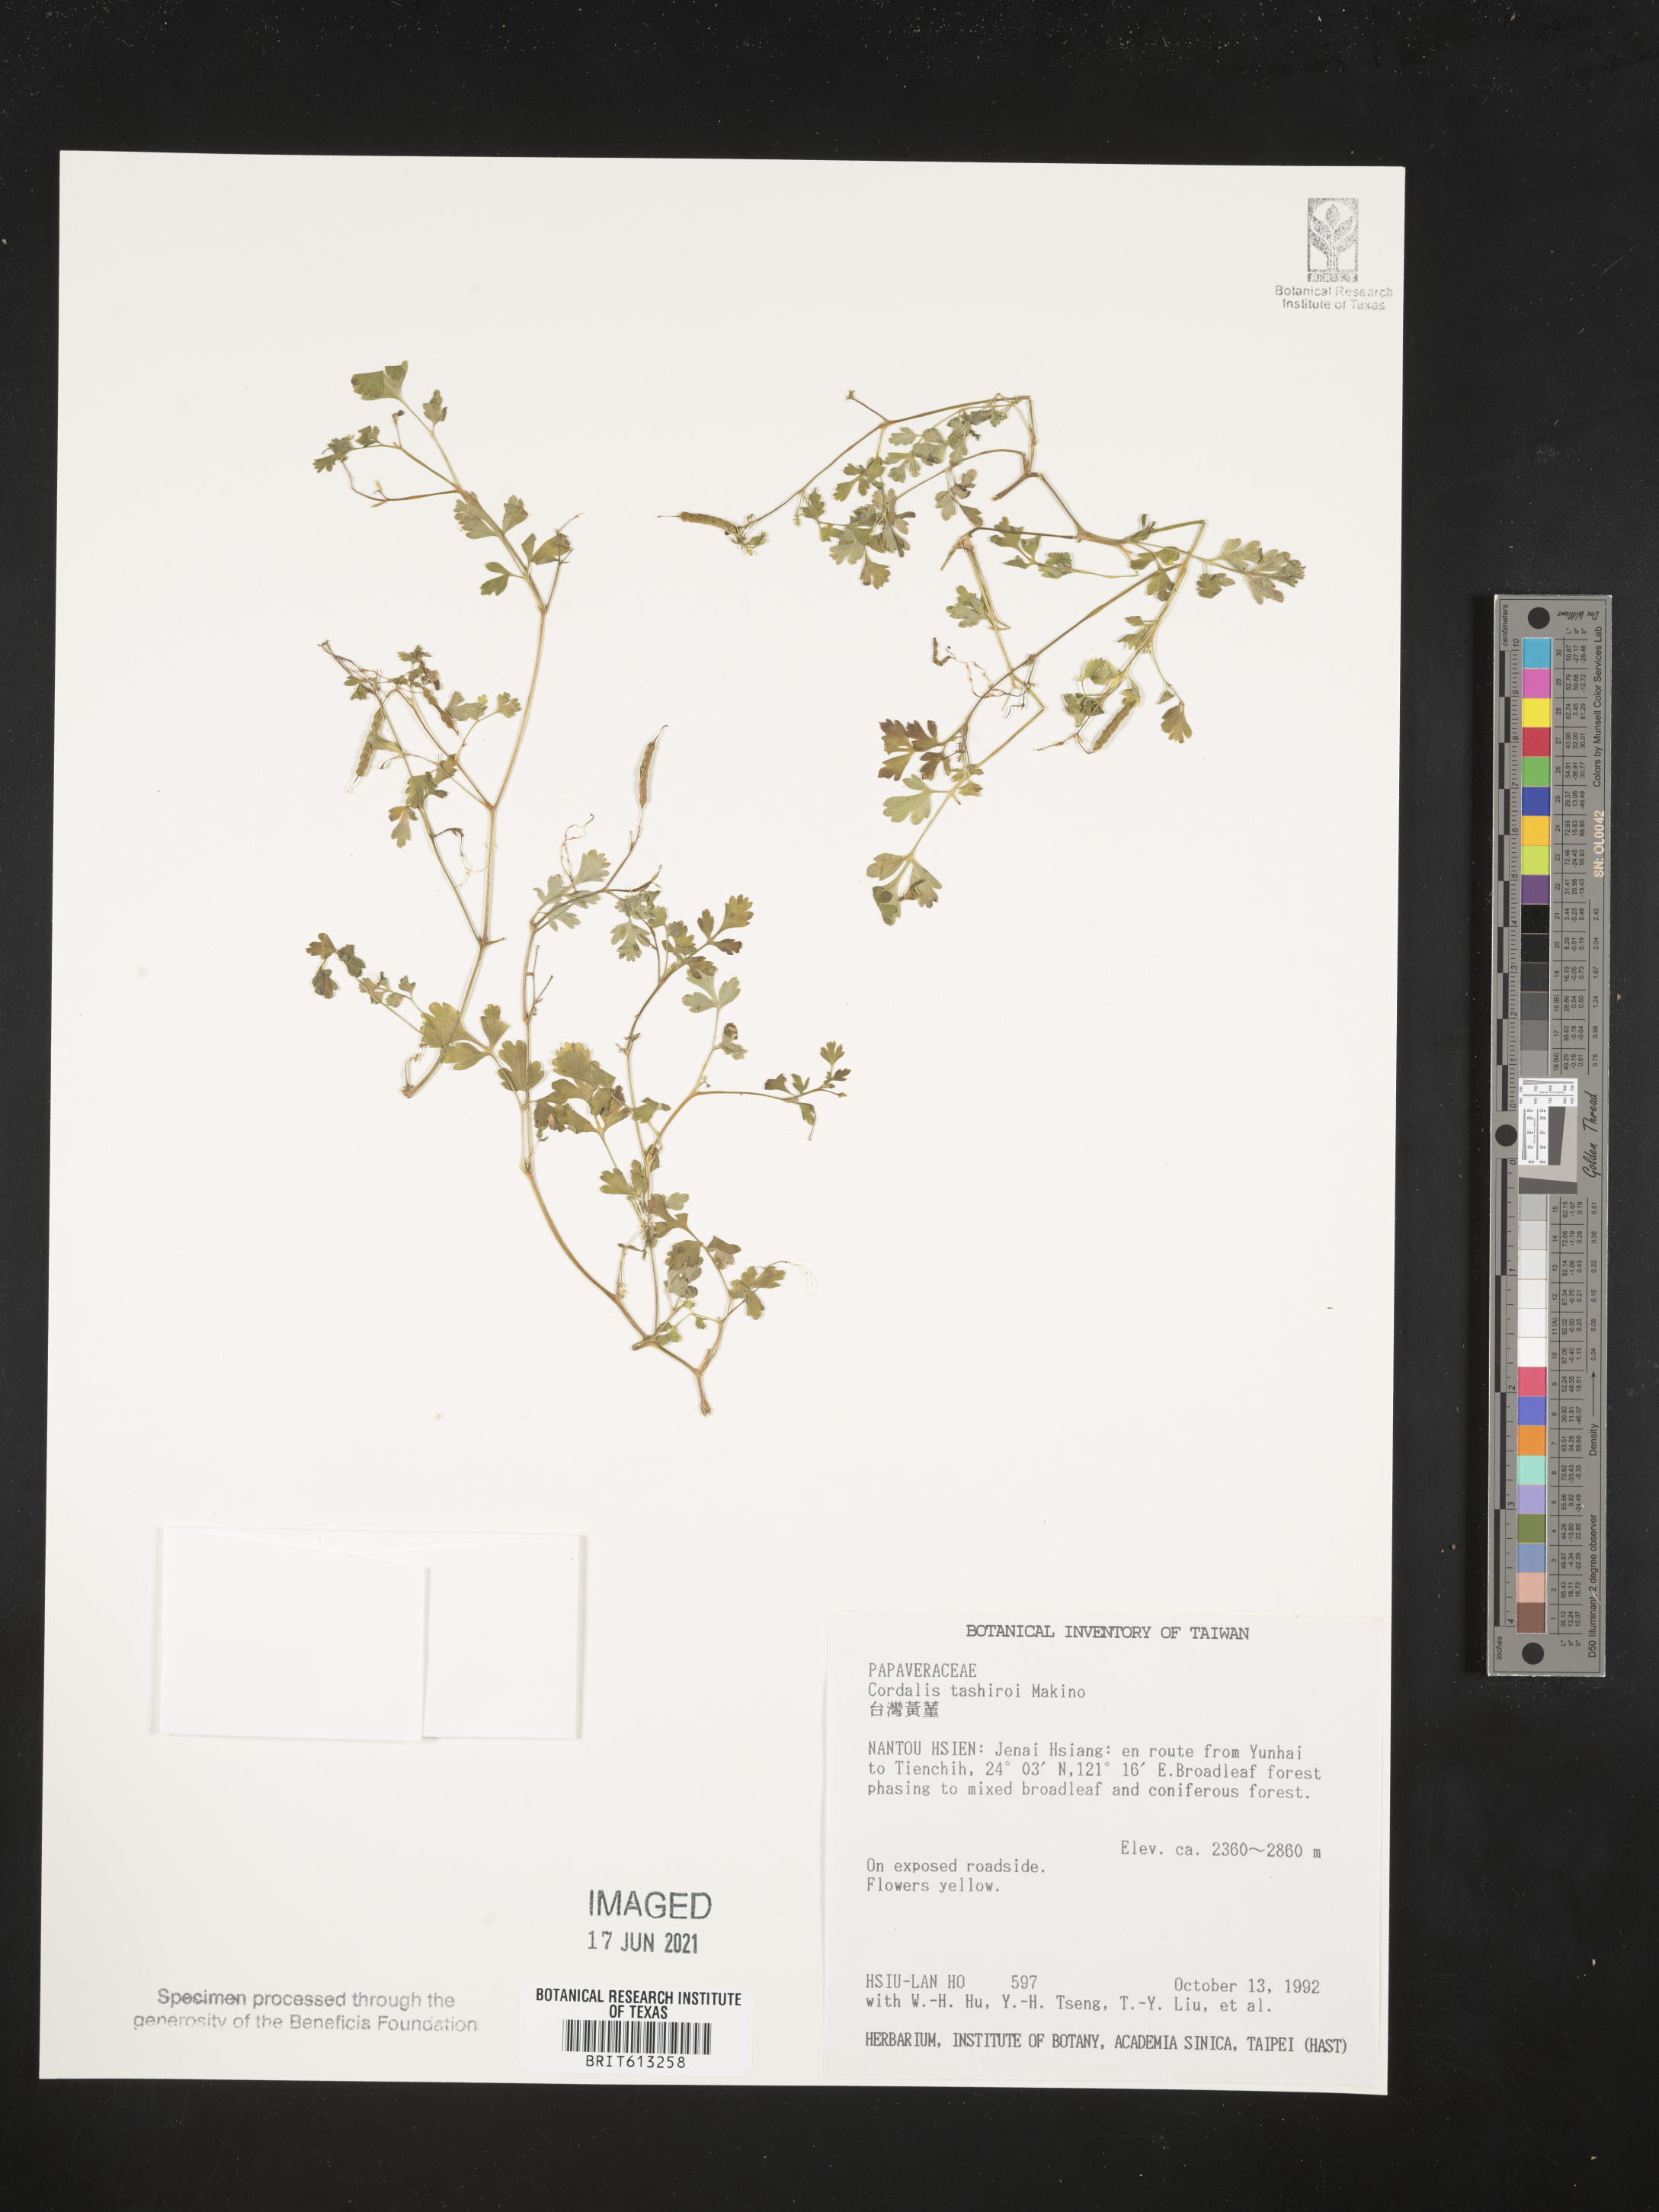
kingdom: Plantae
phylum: Tracheophyta
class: Magnoliopsida
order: Ranunculales
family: Papaveraceae
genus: Corydalis
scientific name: Corydalis balansae
